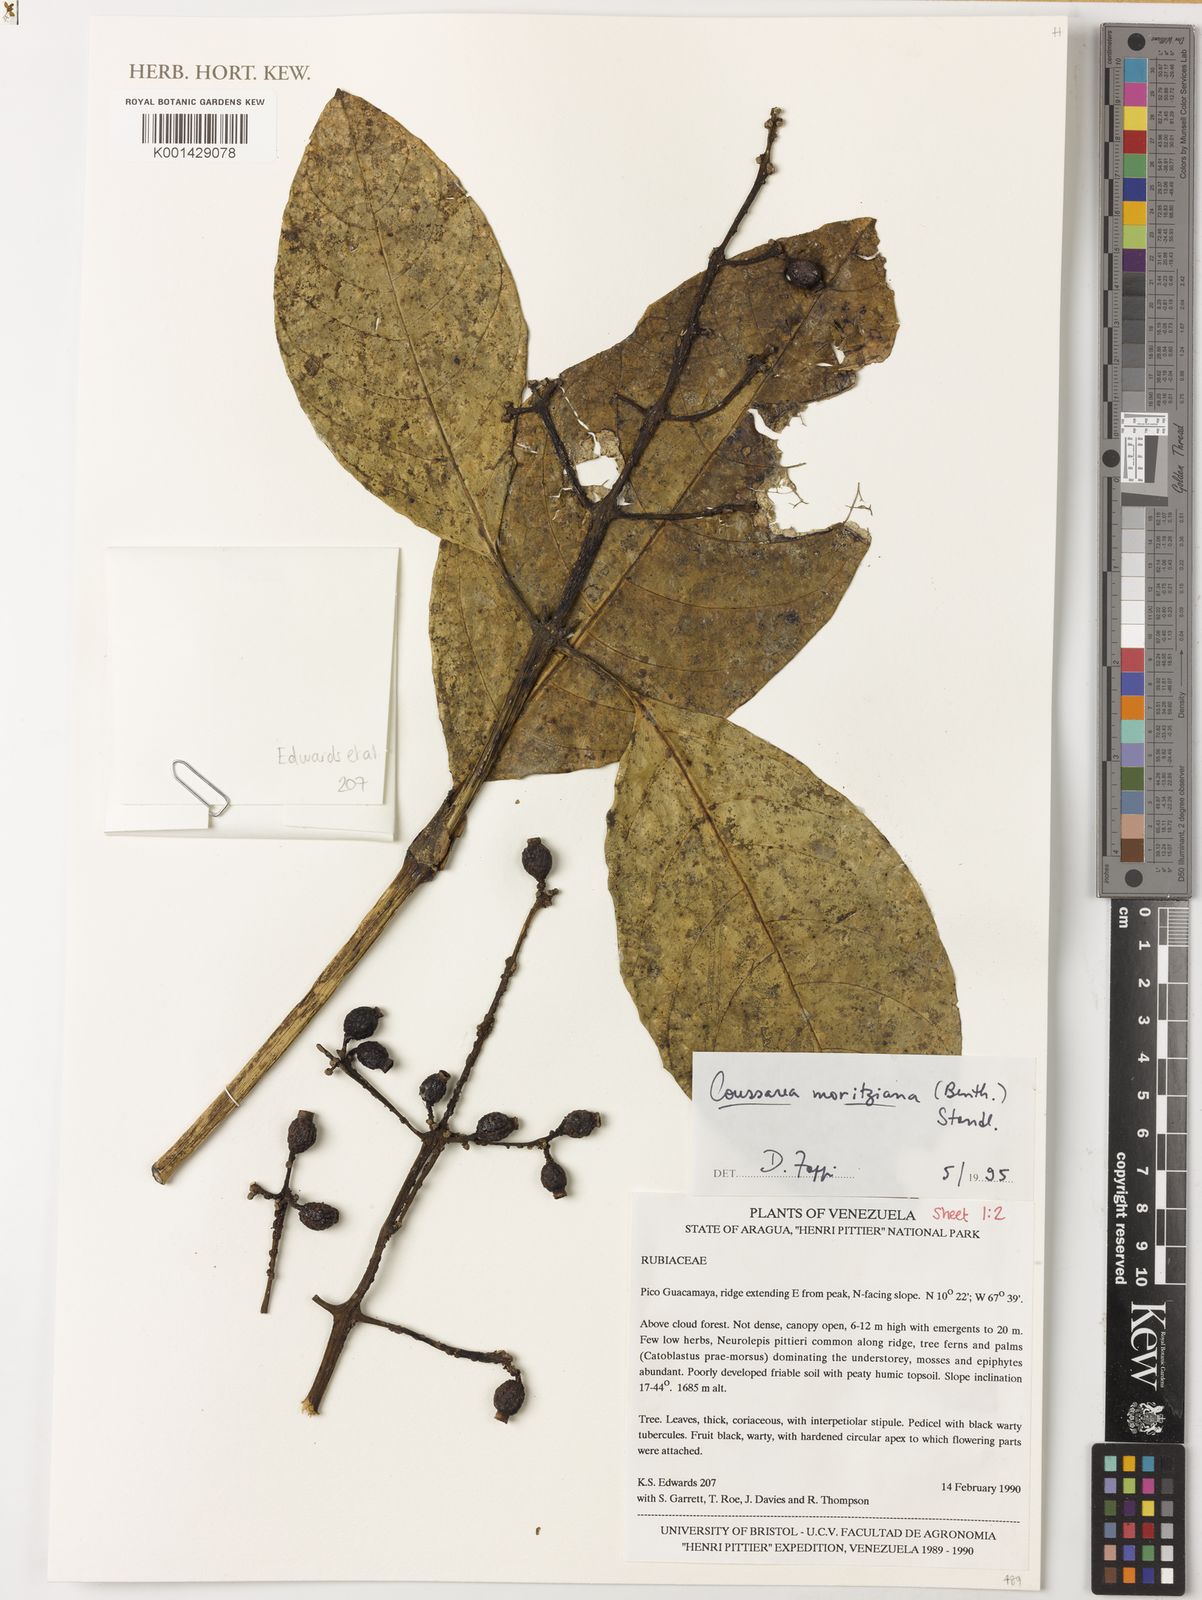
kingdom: Plantae
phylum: Tracheophyta
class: Magnoliopsida
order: Gentianales
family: Rubiaceae
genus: Coussarea
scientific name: Coussarea moritziana
